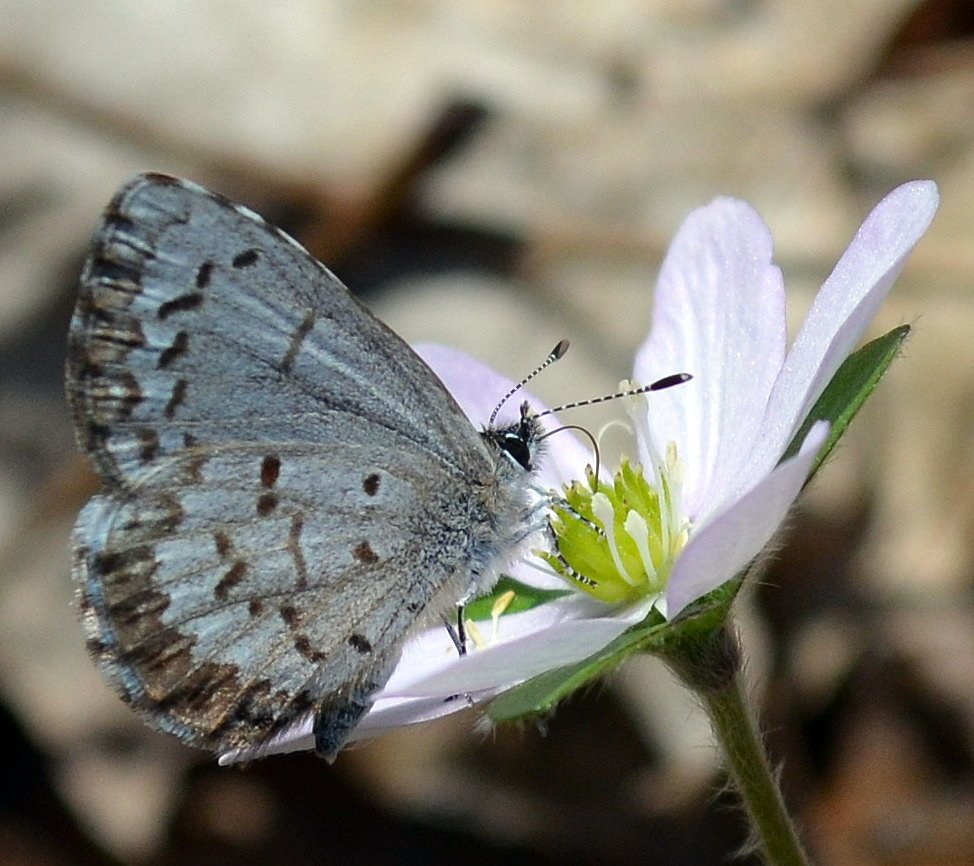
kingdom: Animalia
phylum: Arthropoda
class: Insecta
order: Lepidoptera
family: Lycaenidae
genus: Celastrina
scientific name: Celastrina lucia
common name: Northern Spring Azure
